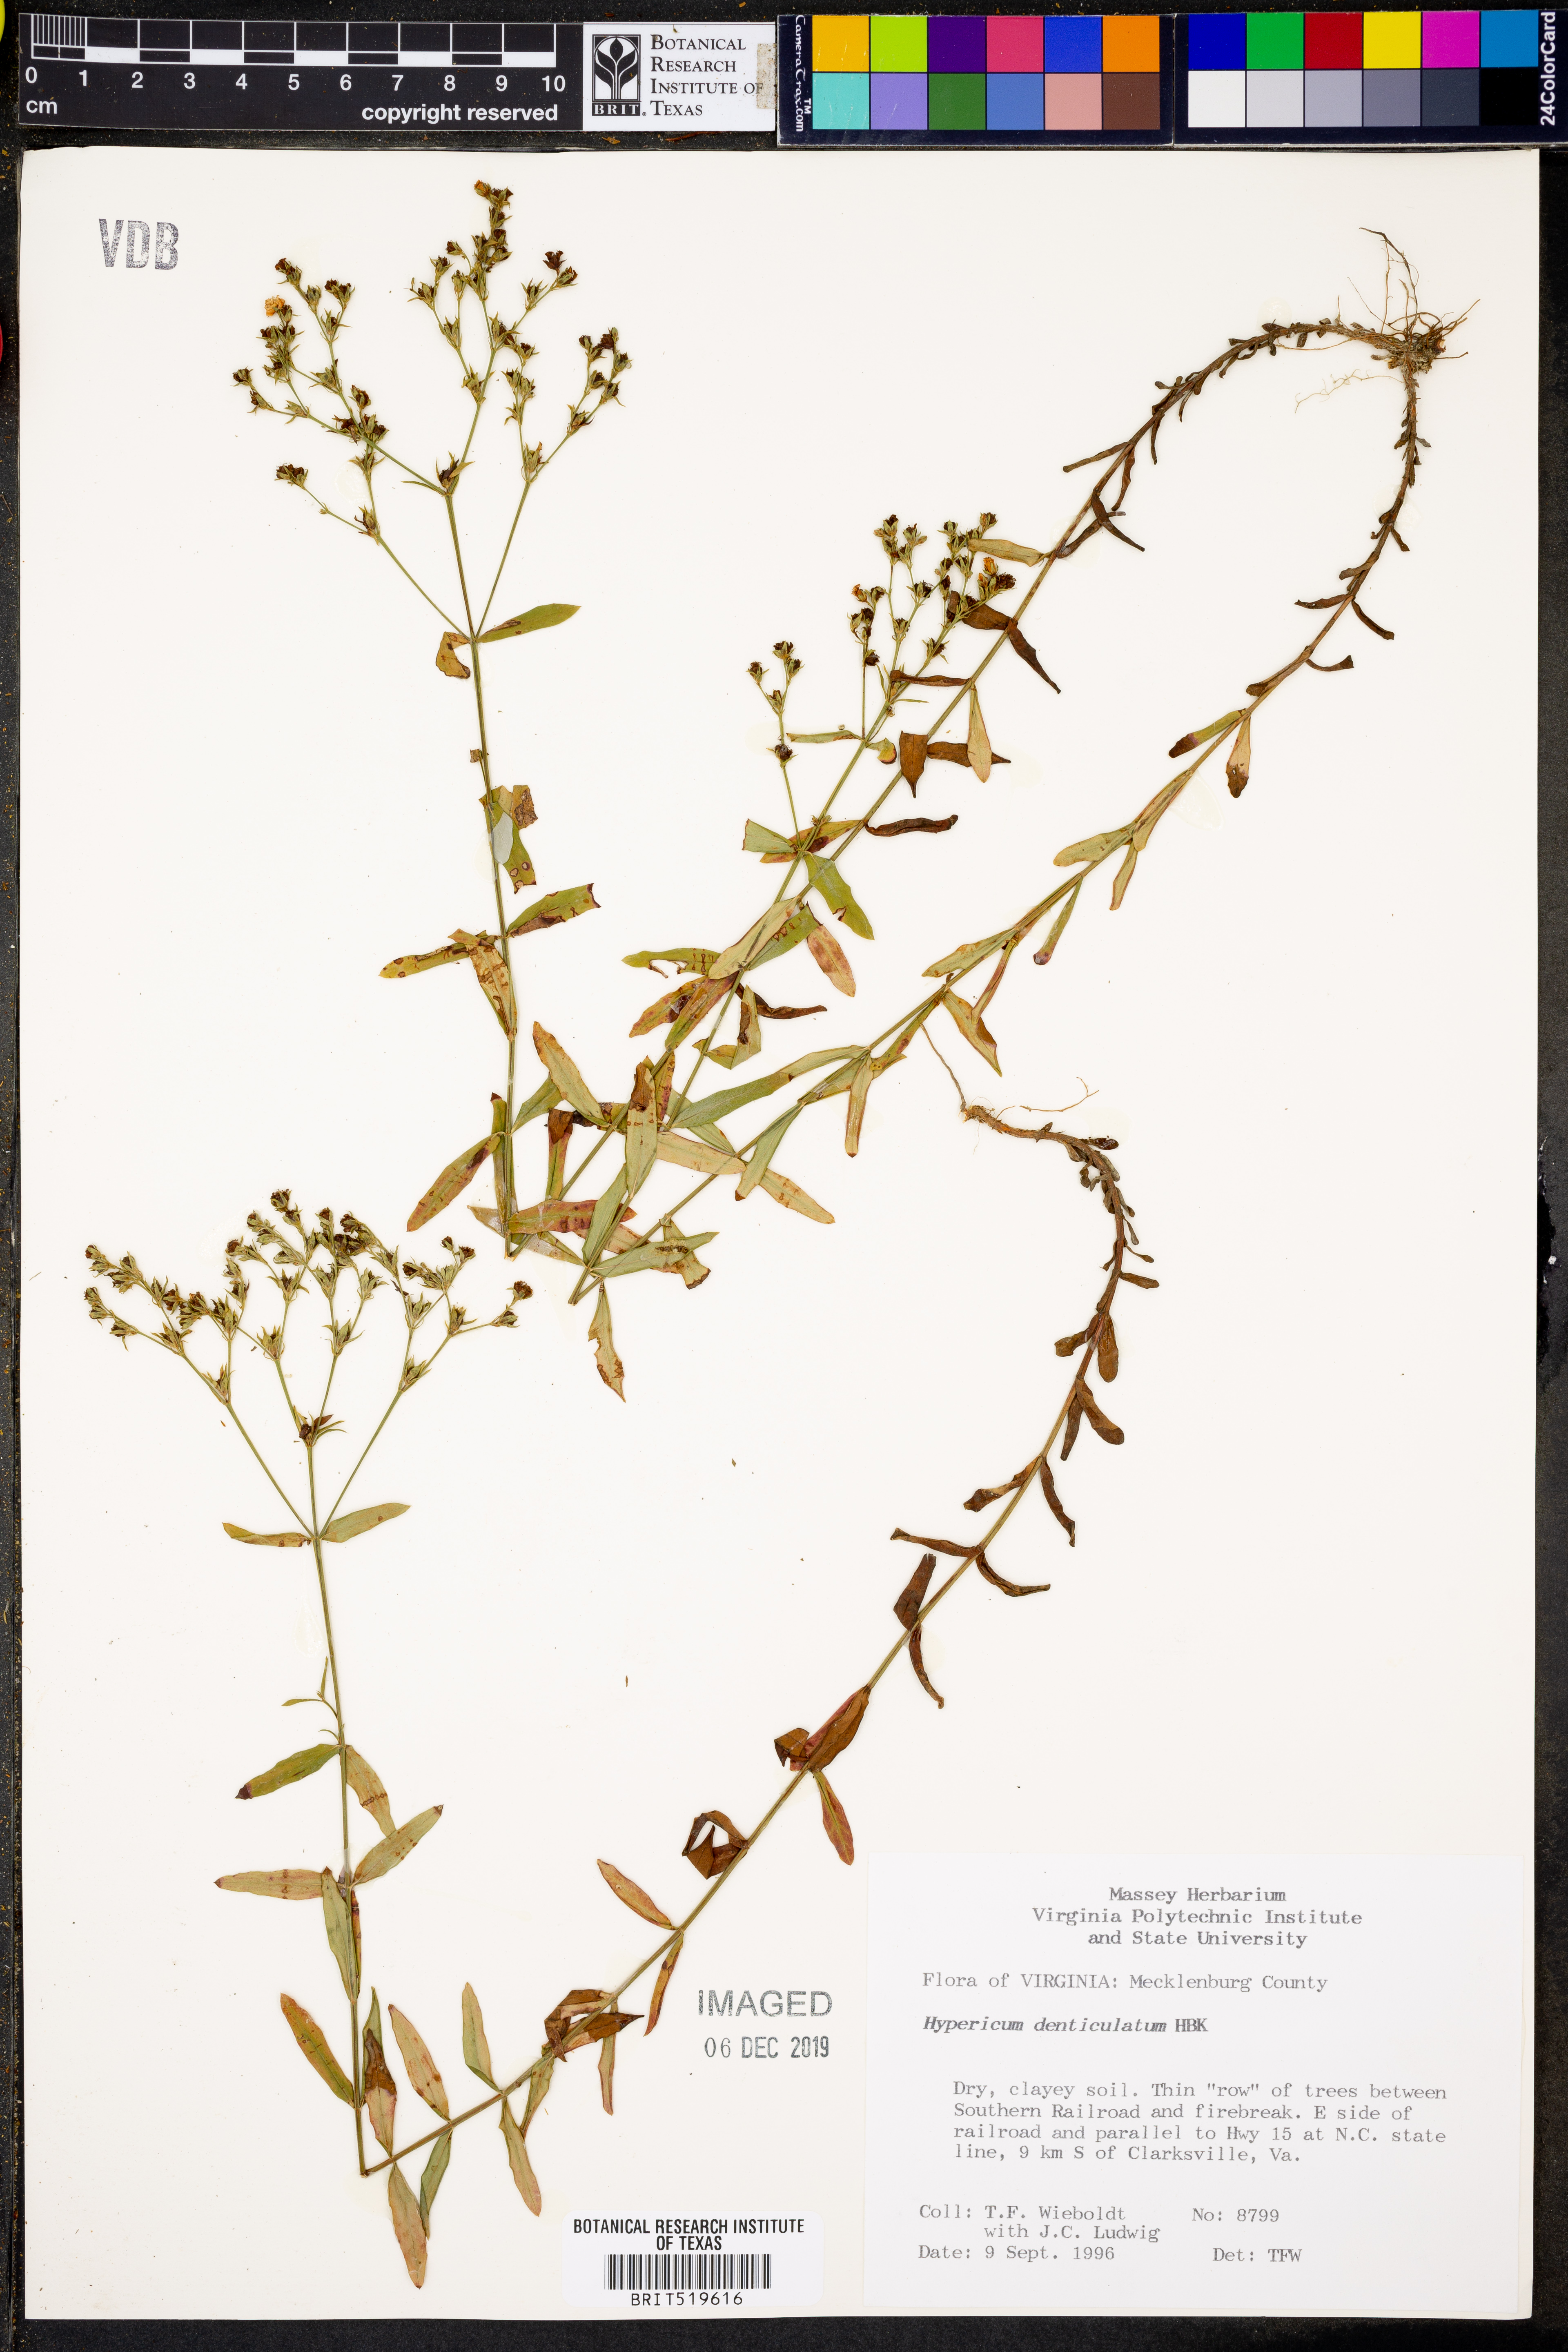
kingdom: Plantae
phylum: Tracheophyta
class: Magnoliopsida
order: Malpighiales
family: Hypericaceae
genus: Hypericum
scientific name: Hypericum denticulatum
